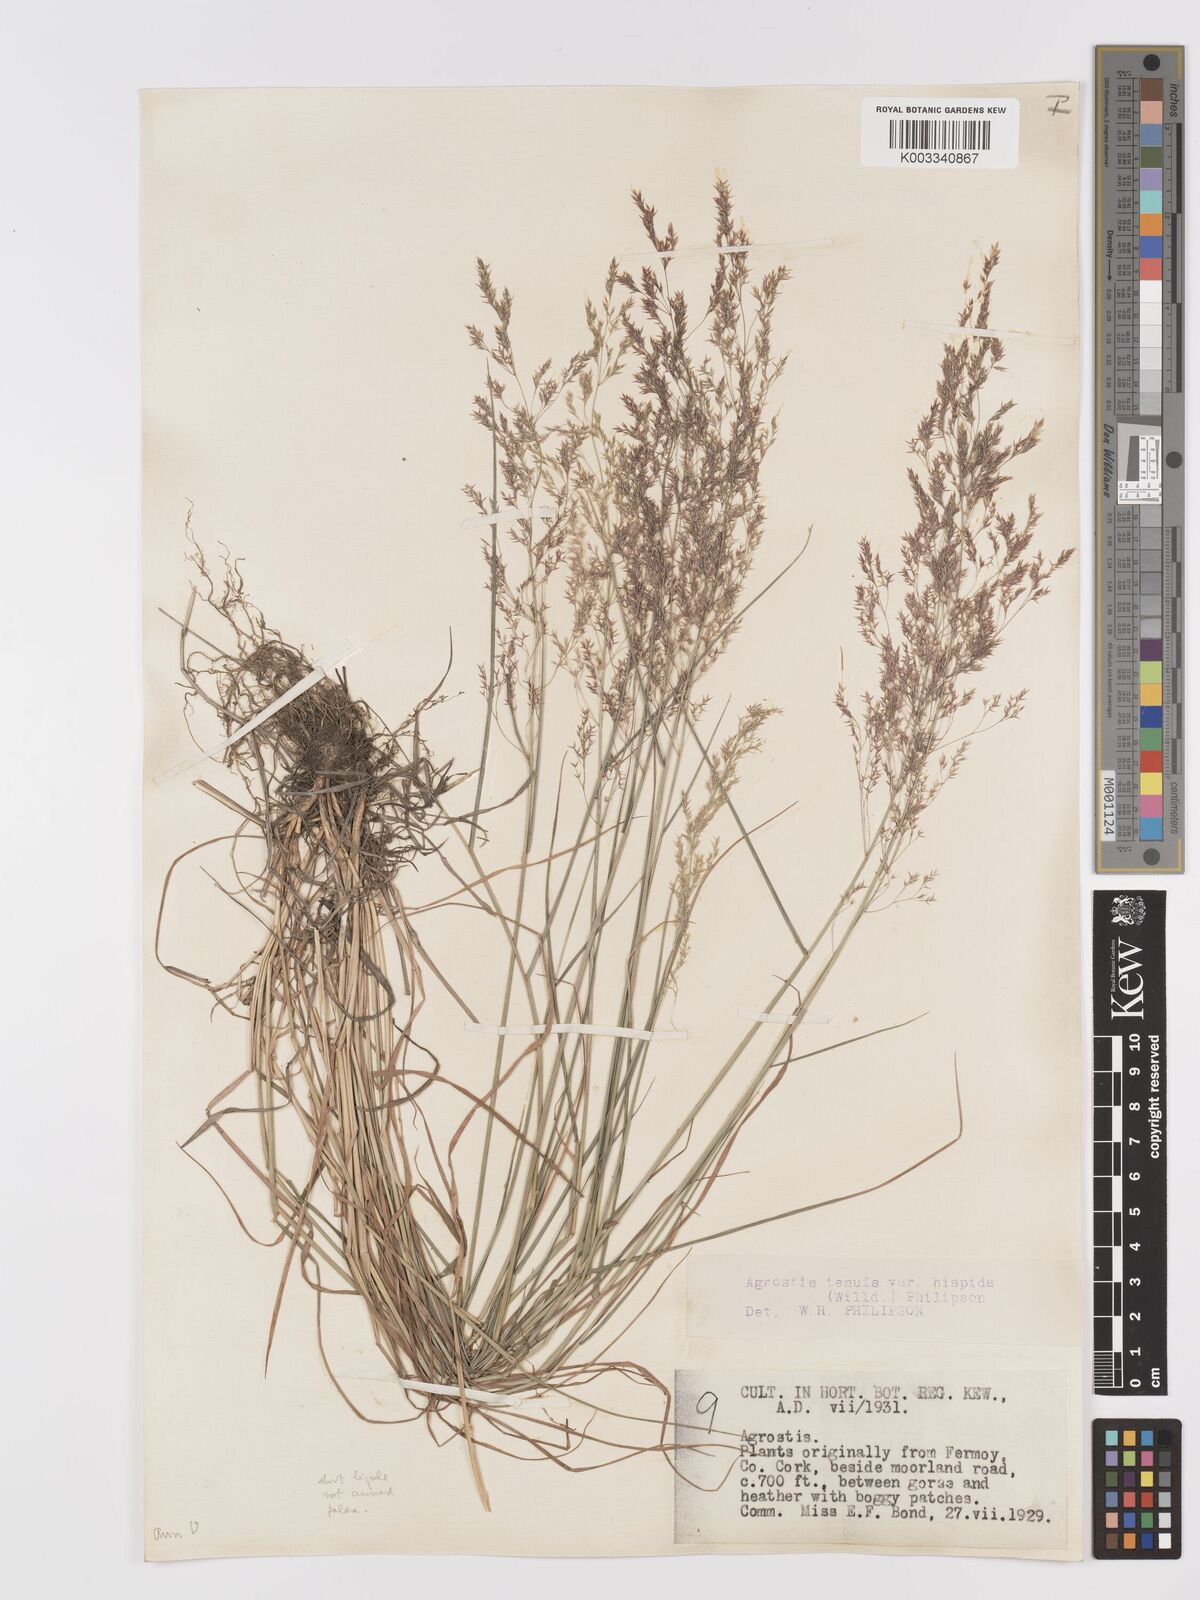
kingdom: Plantae
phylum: Tracheophyta
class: Liliopsida
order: Poales
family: Poaceae
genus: Agrostis
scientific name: Agrostis capillaris
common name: Colonial bentgrass
